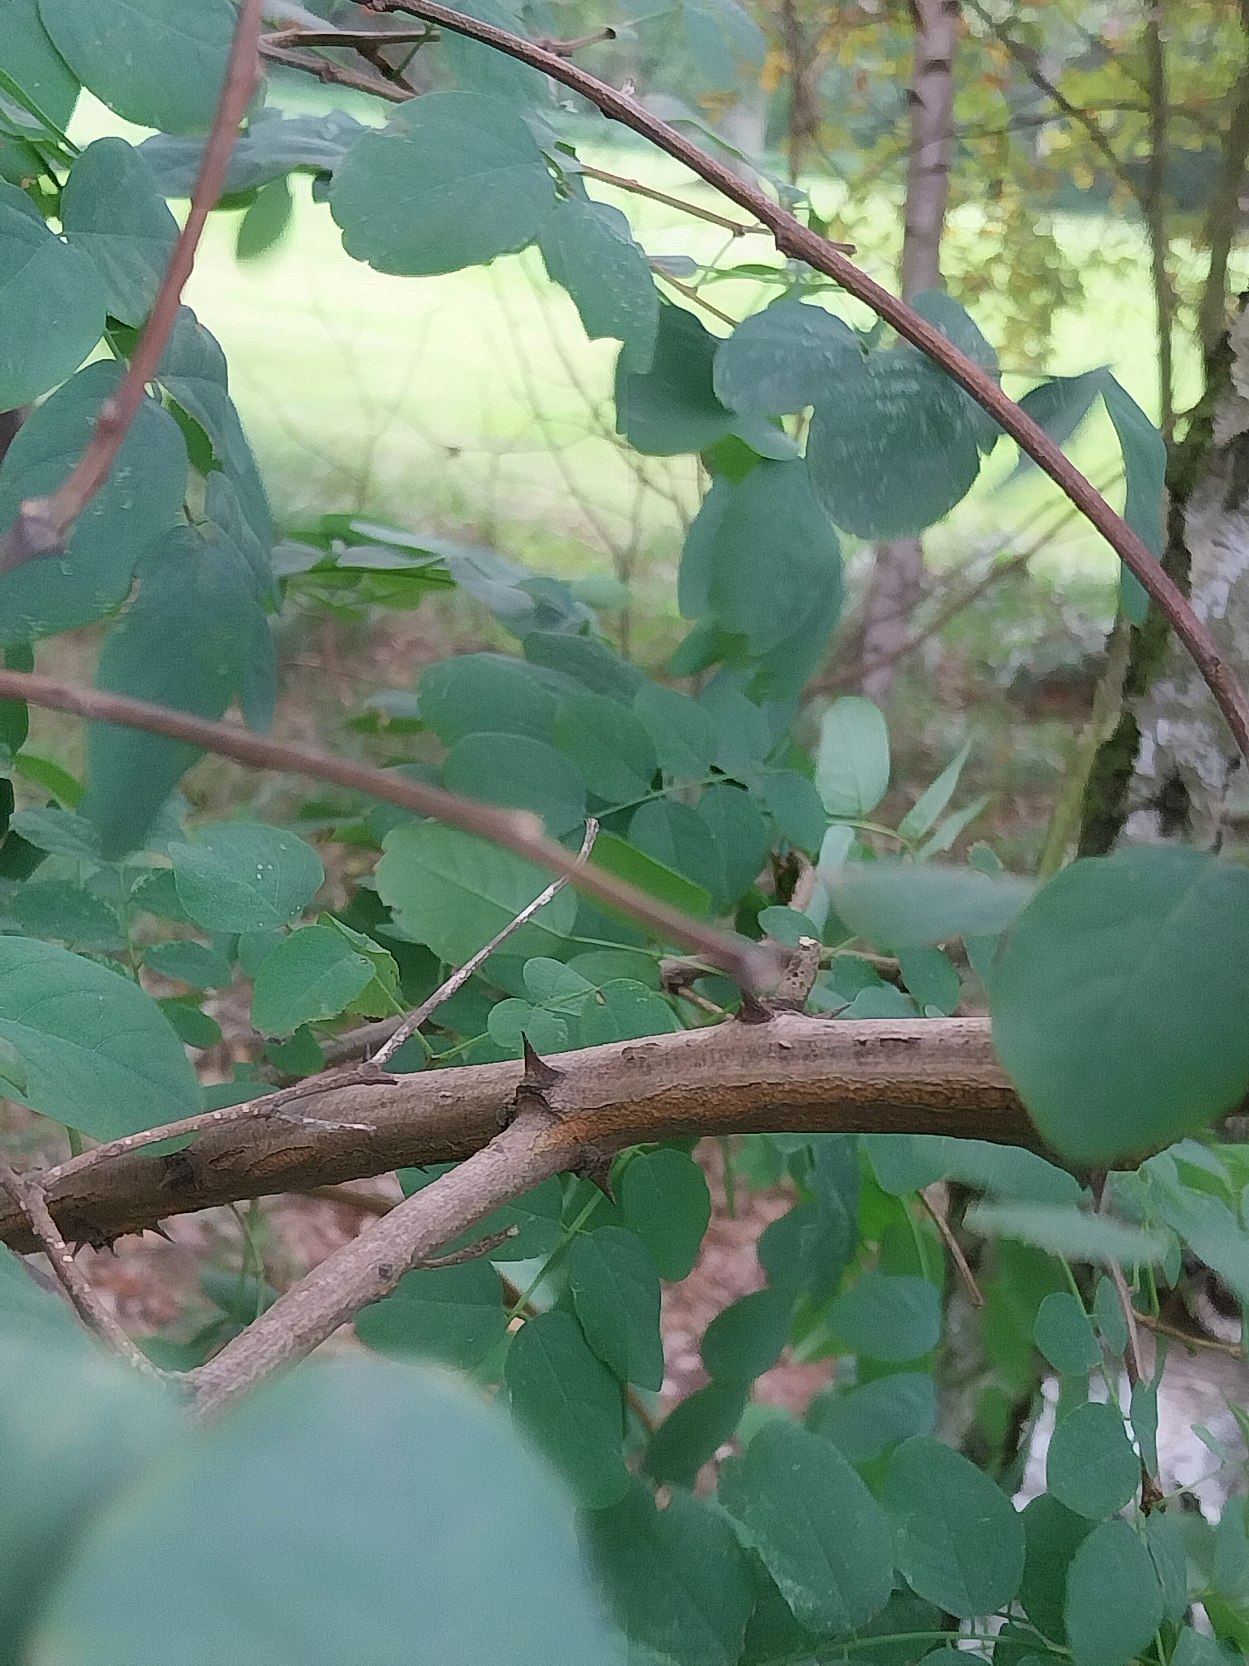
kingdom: Plantae
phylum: Tracheophyta
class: Magnoliopsida
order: Fabales
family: Fabaceae
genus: Robinia
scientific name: Robinia pseudoacacia
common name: Robinie
